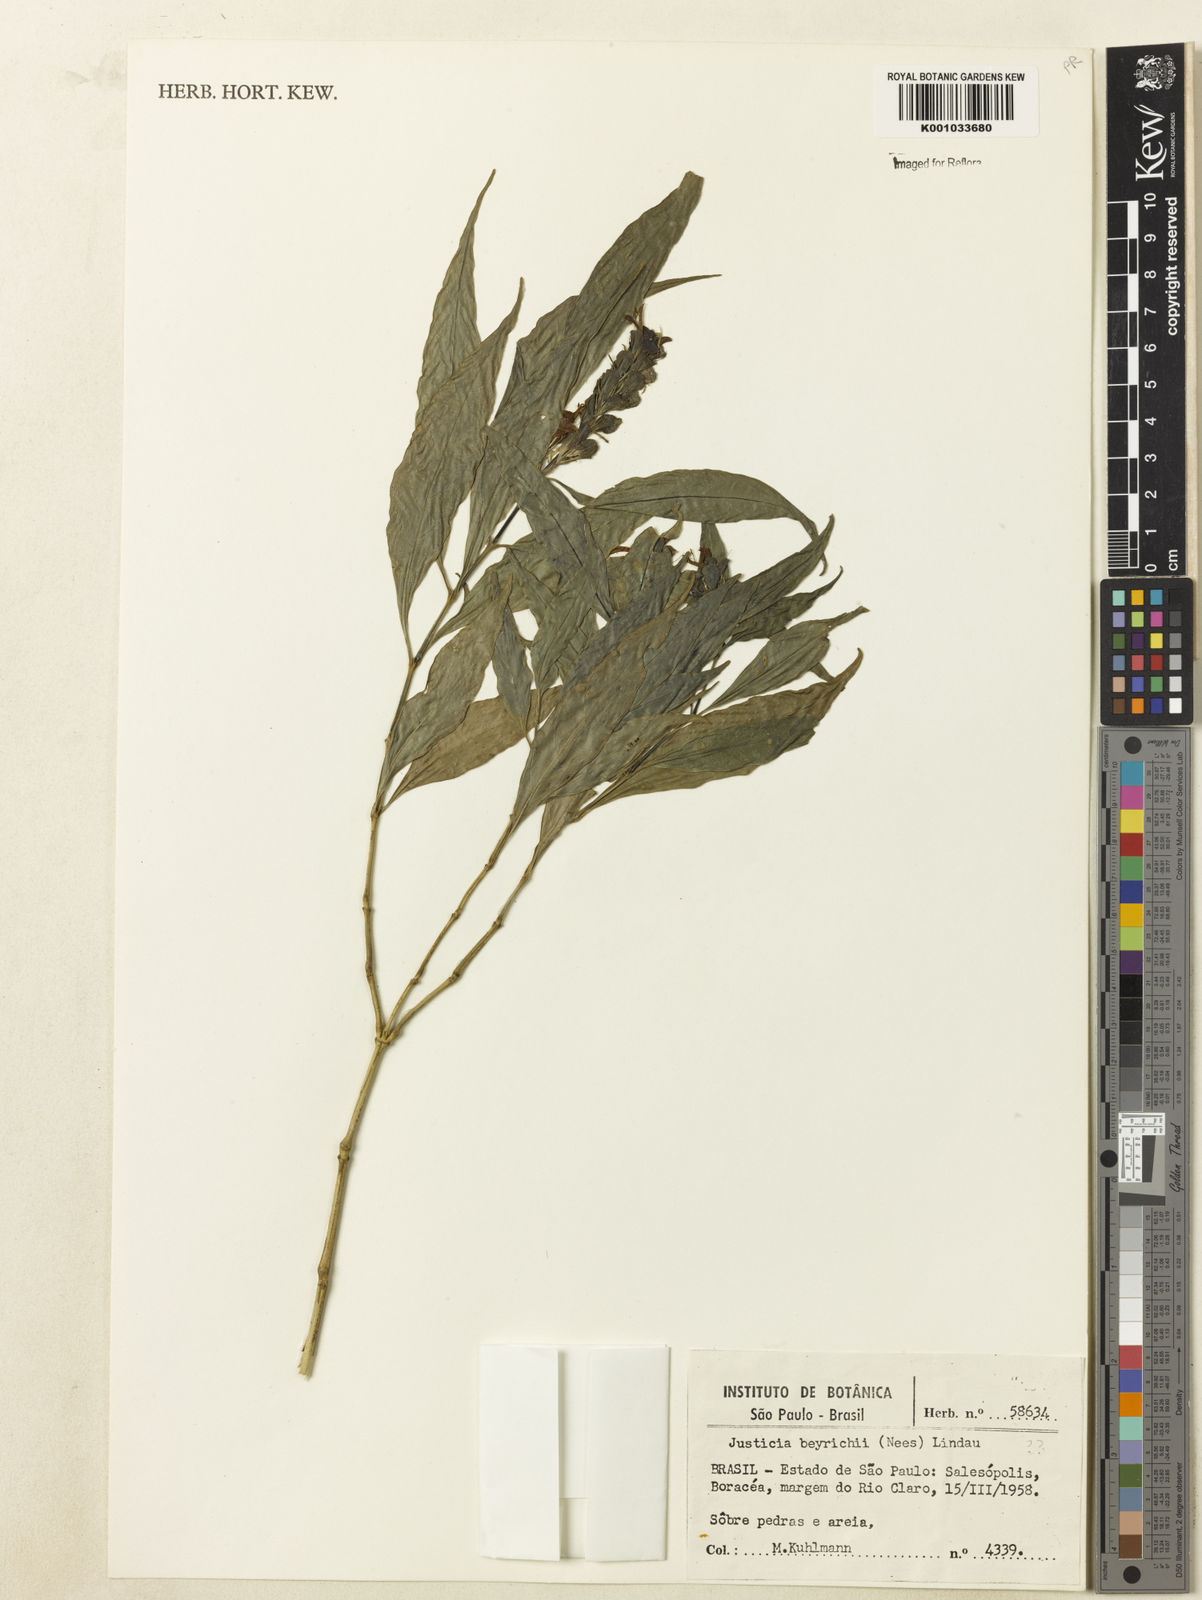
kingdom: Plantae
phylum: Tracheophyta
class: Magnoliopsida
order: Lamiales
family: Acanthaceae
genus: Justicia
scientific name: Justicia
